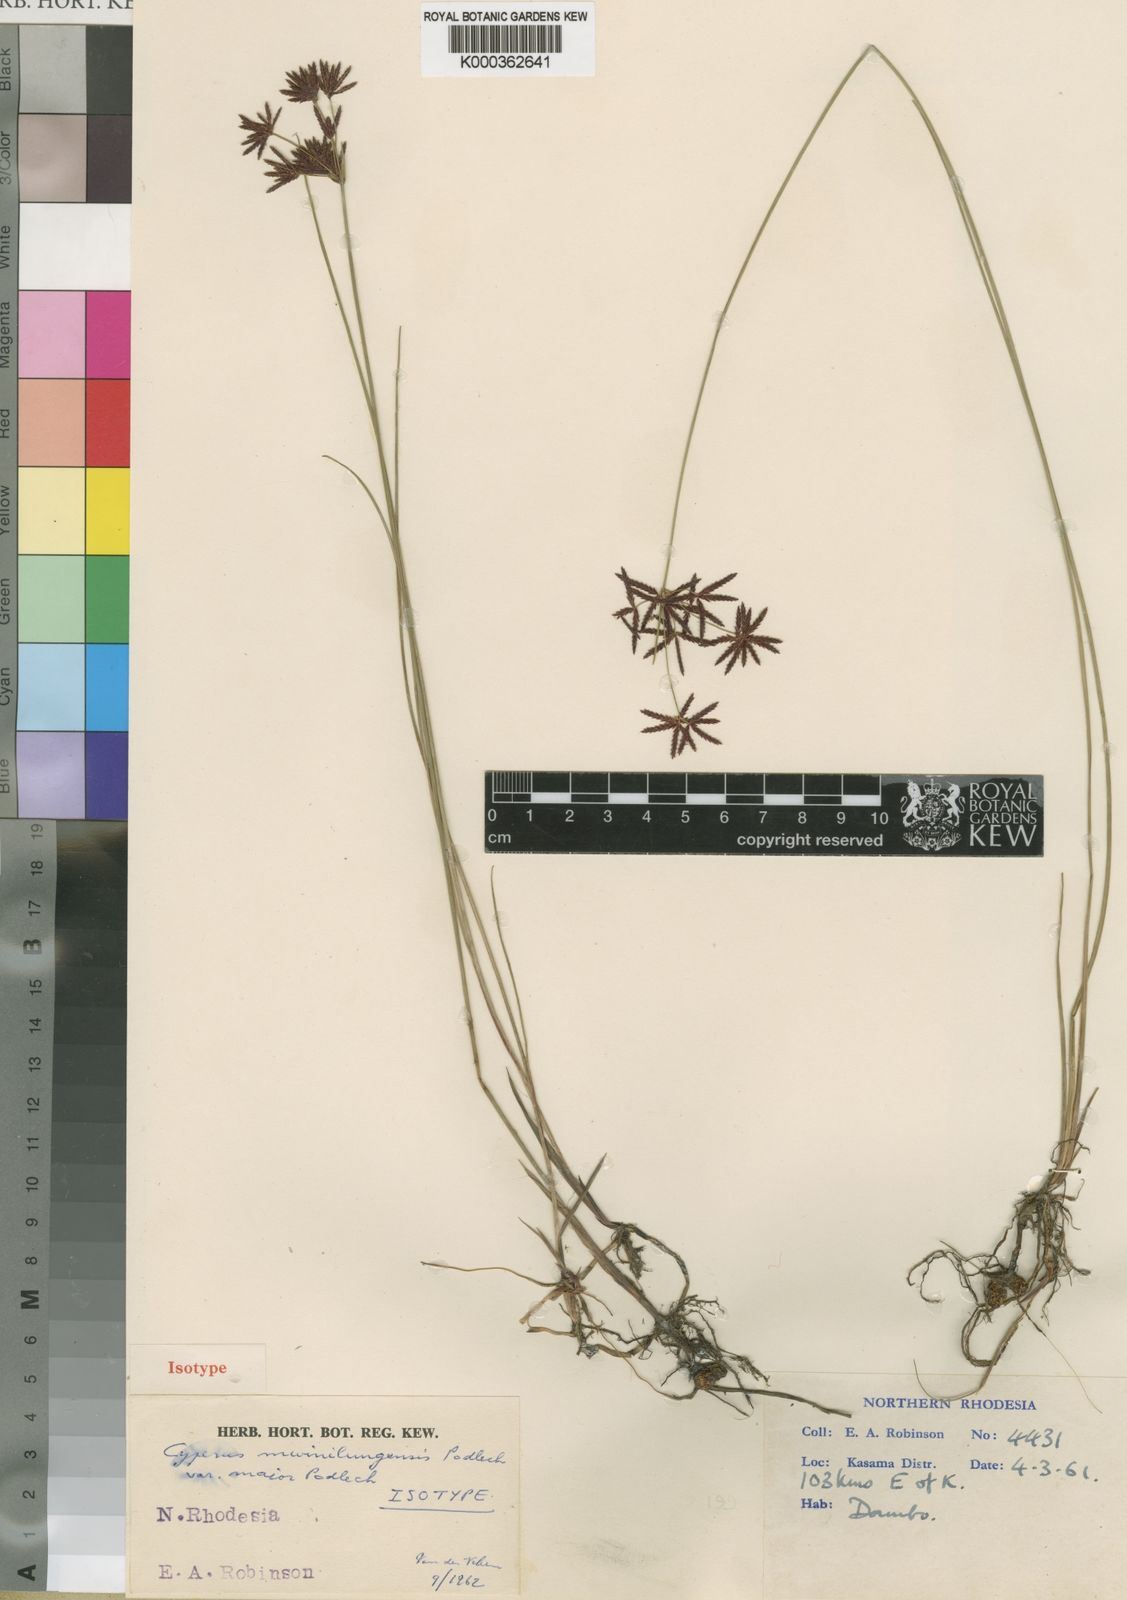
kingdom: Plantae
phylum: Tracheophyta
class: Liliopsida
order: Poales
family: Cyperaceae
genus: Cyperus
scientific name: Cyperus mwinilungensis
